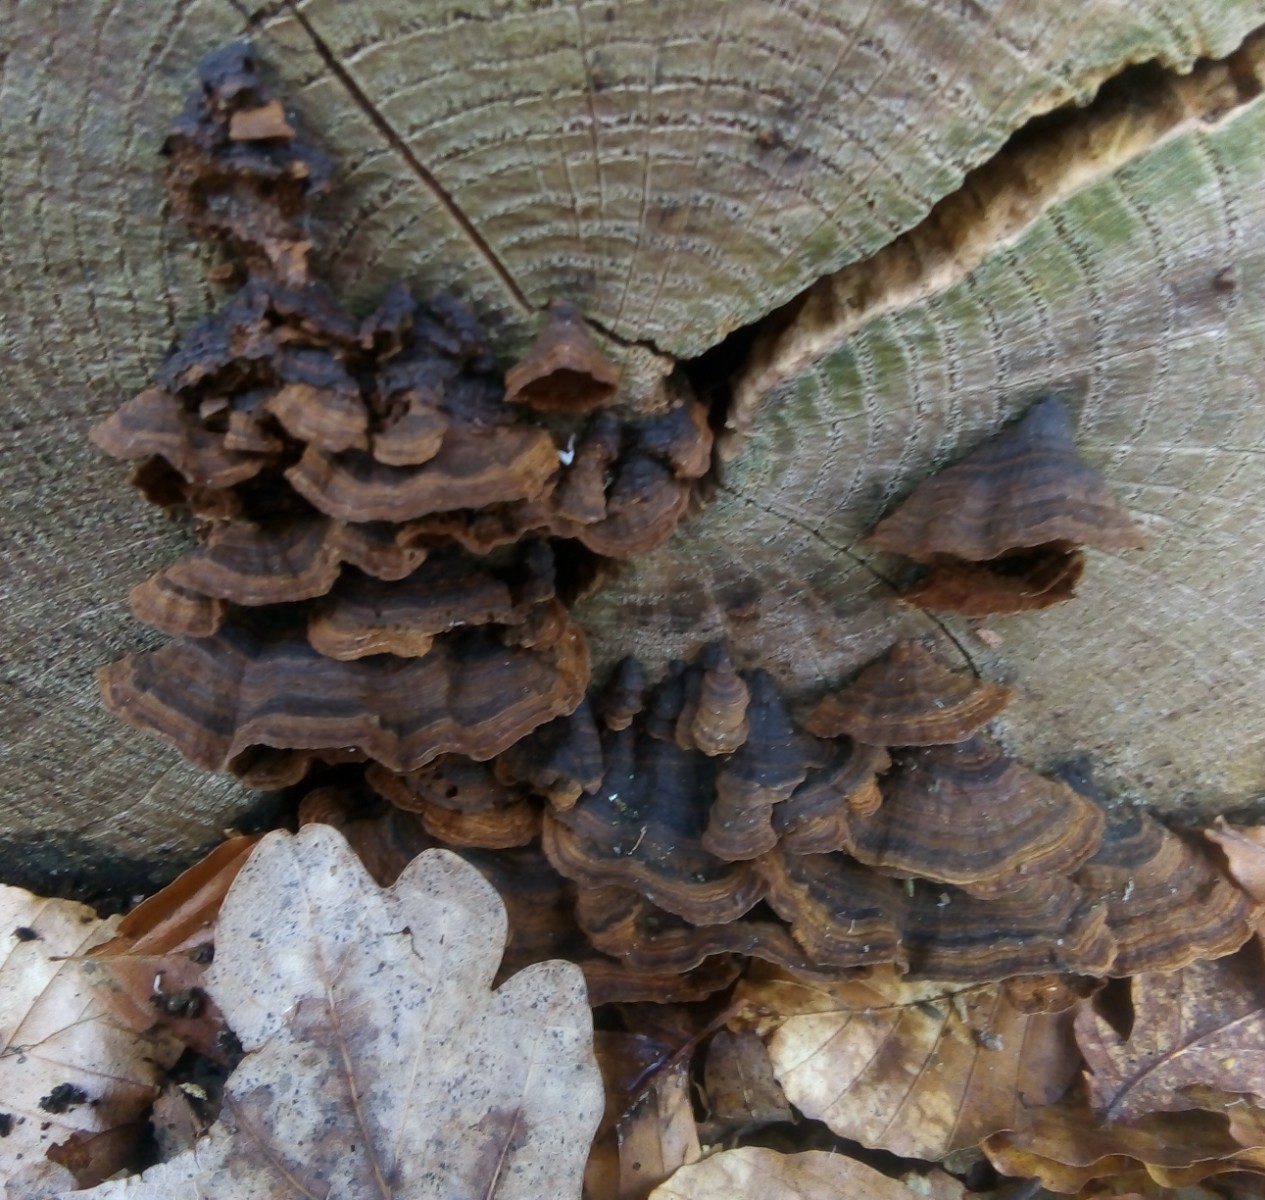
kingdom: Fungi
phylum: Basidiomycota
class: Agaricomycetes
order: Hymenochaetales
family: Hymenochaetaceae
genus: Hymenochaete
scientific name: Hymenochaete rubiginosa
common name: stiv ruslædersvamp
